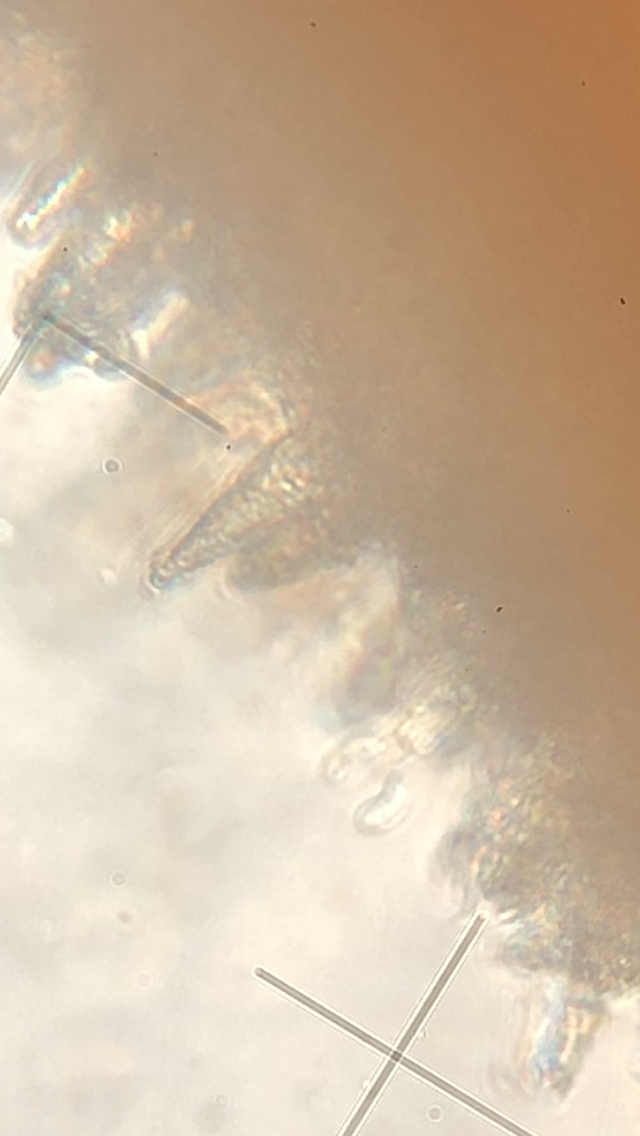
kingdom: Fungi
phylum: Basidiomycota
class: Agaricomycetes
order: Russulales
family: Peniophoraceae
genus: Peniophora
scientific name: Peniophora quercina
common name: ege-voksskind
